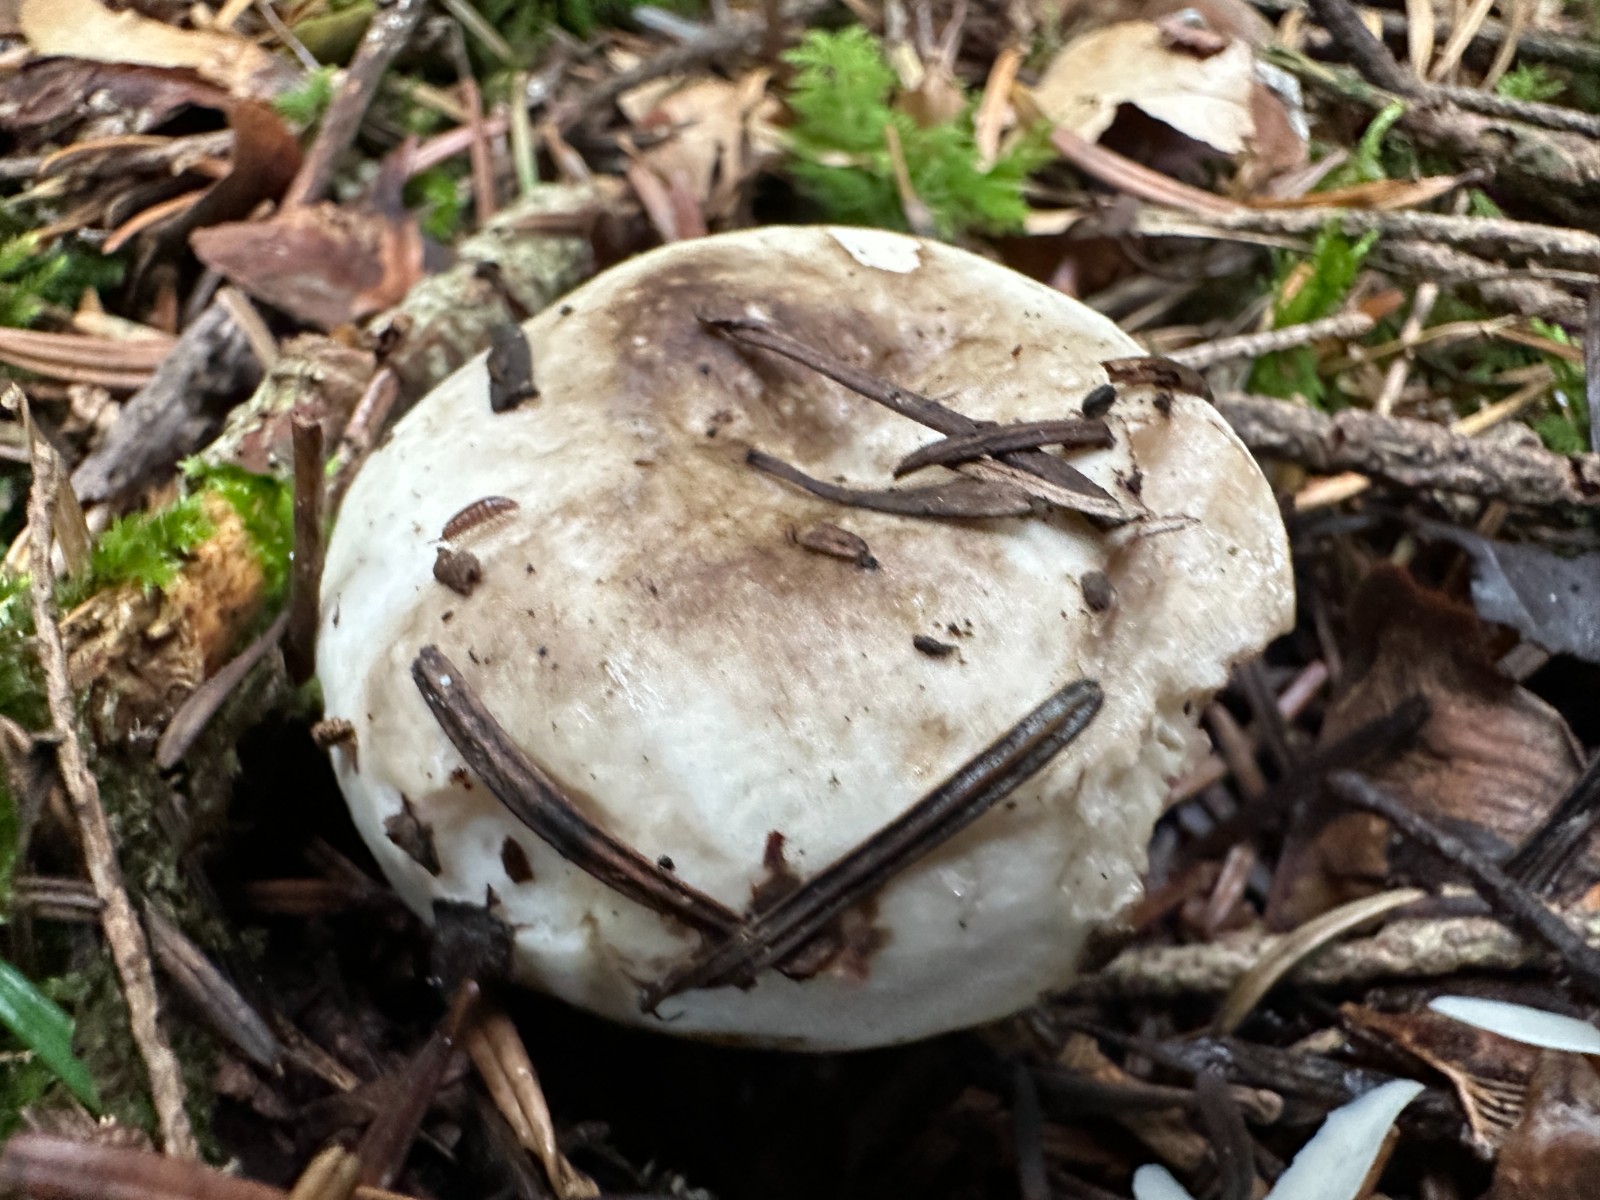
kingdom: Fungi
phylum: Basidiomycota
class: Agaricomycetes
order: Russulales
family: Russulaceae
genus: Russula
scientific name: Russula adusta
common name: sværtende skørhat
